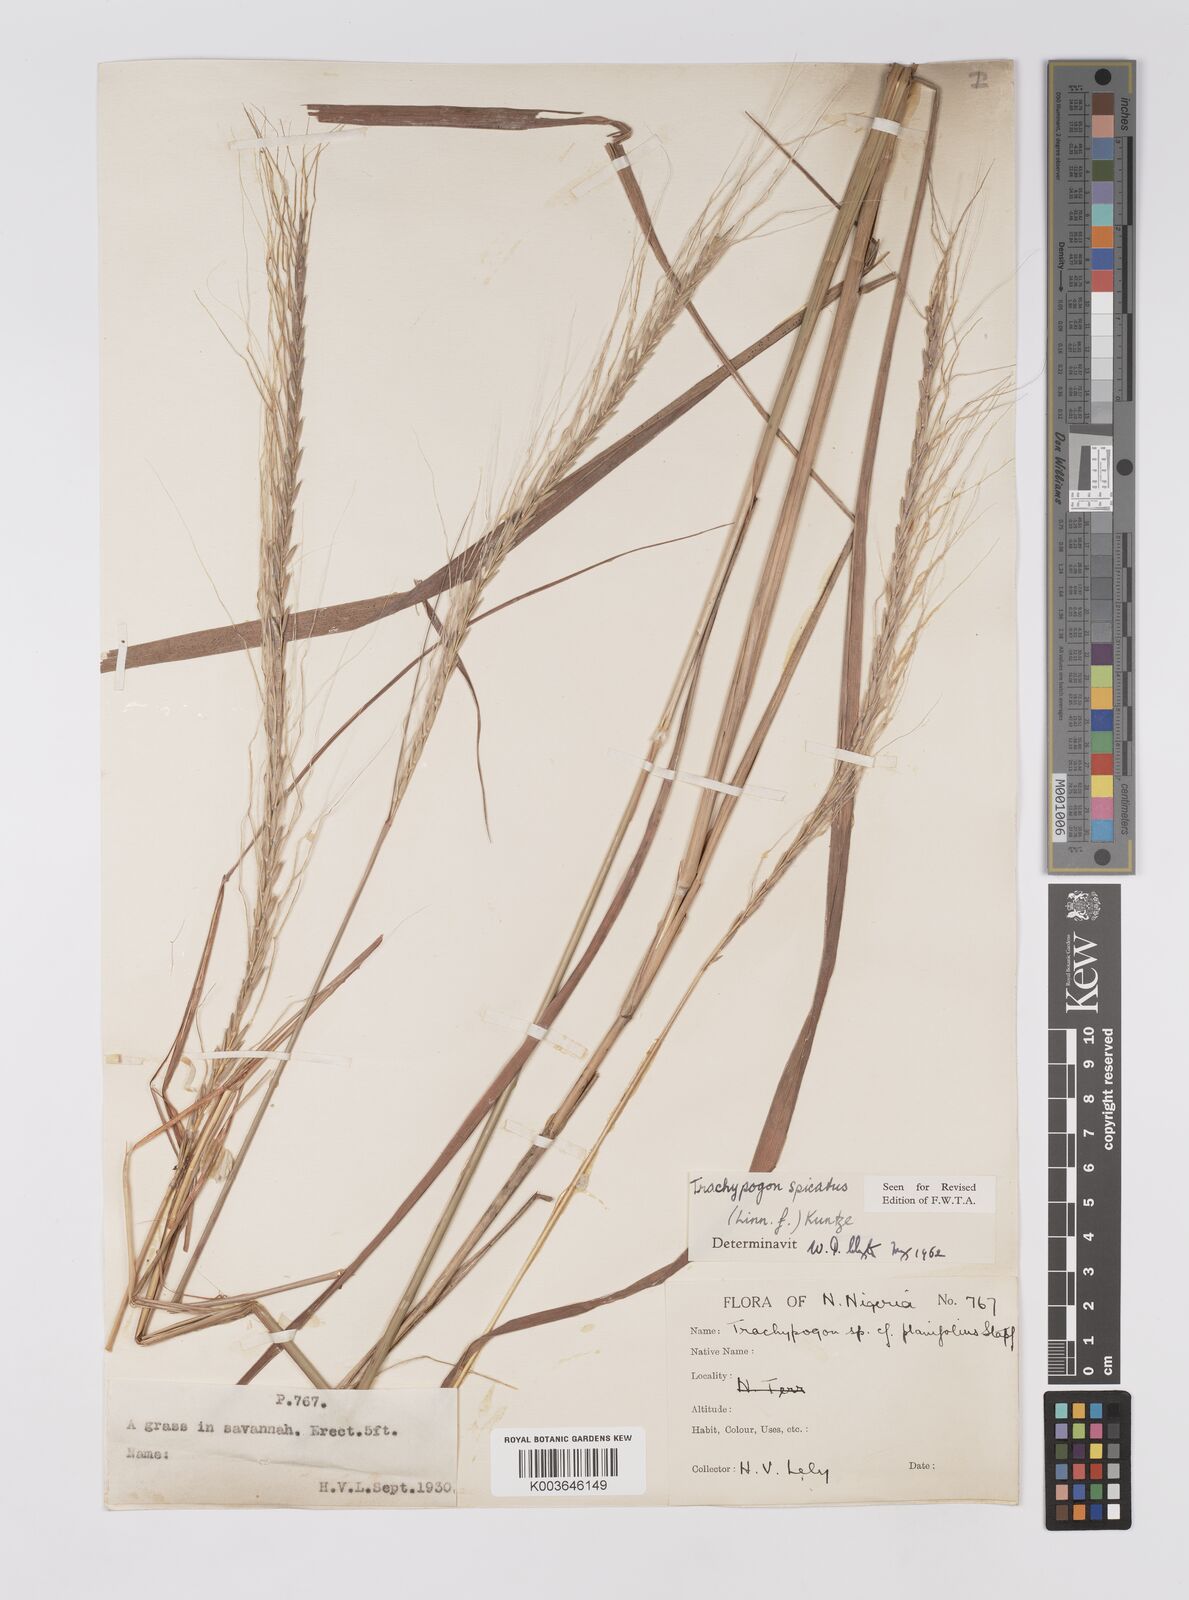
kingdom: Plantae
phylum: Tracheophyta
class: Liliopsida
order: Poales
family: Poaceae
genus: Trachypogon
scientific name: Trachypogon spicatus
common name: Crinkle-awn
